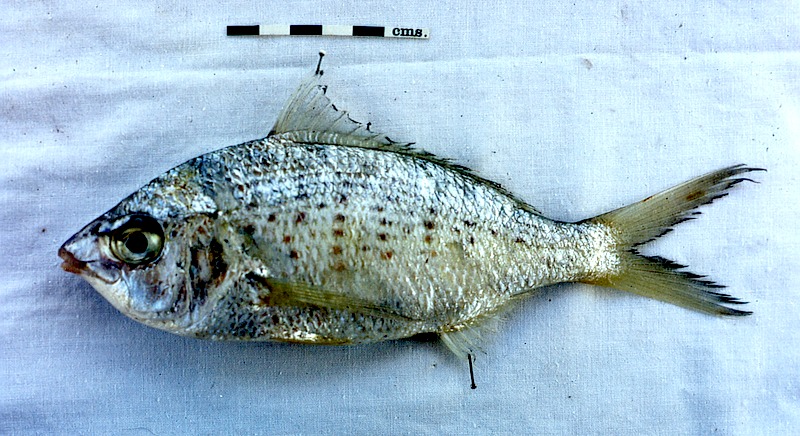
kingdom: Animalia
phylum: Chordata
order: Perciformes
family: Gerreidae
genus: Gerres
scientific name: Gerres longirostris
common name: Strongspine silver-biddy
